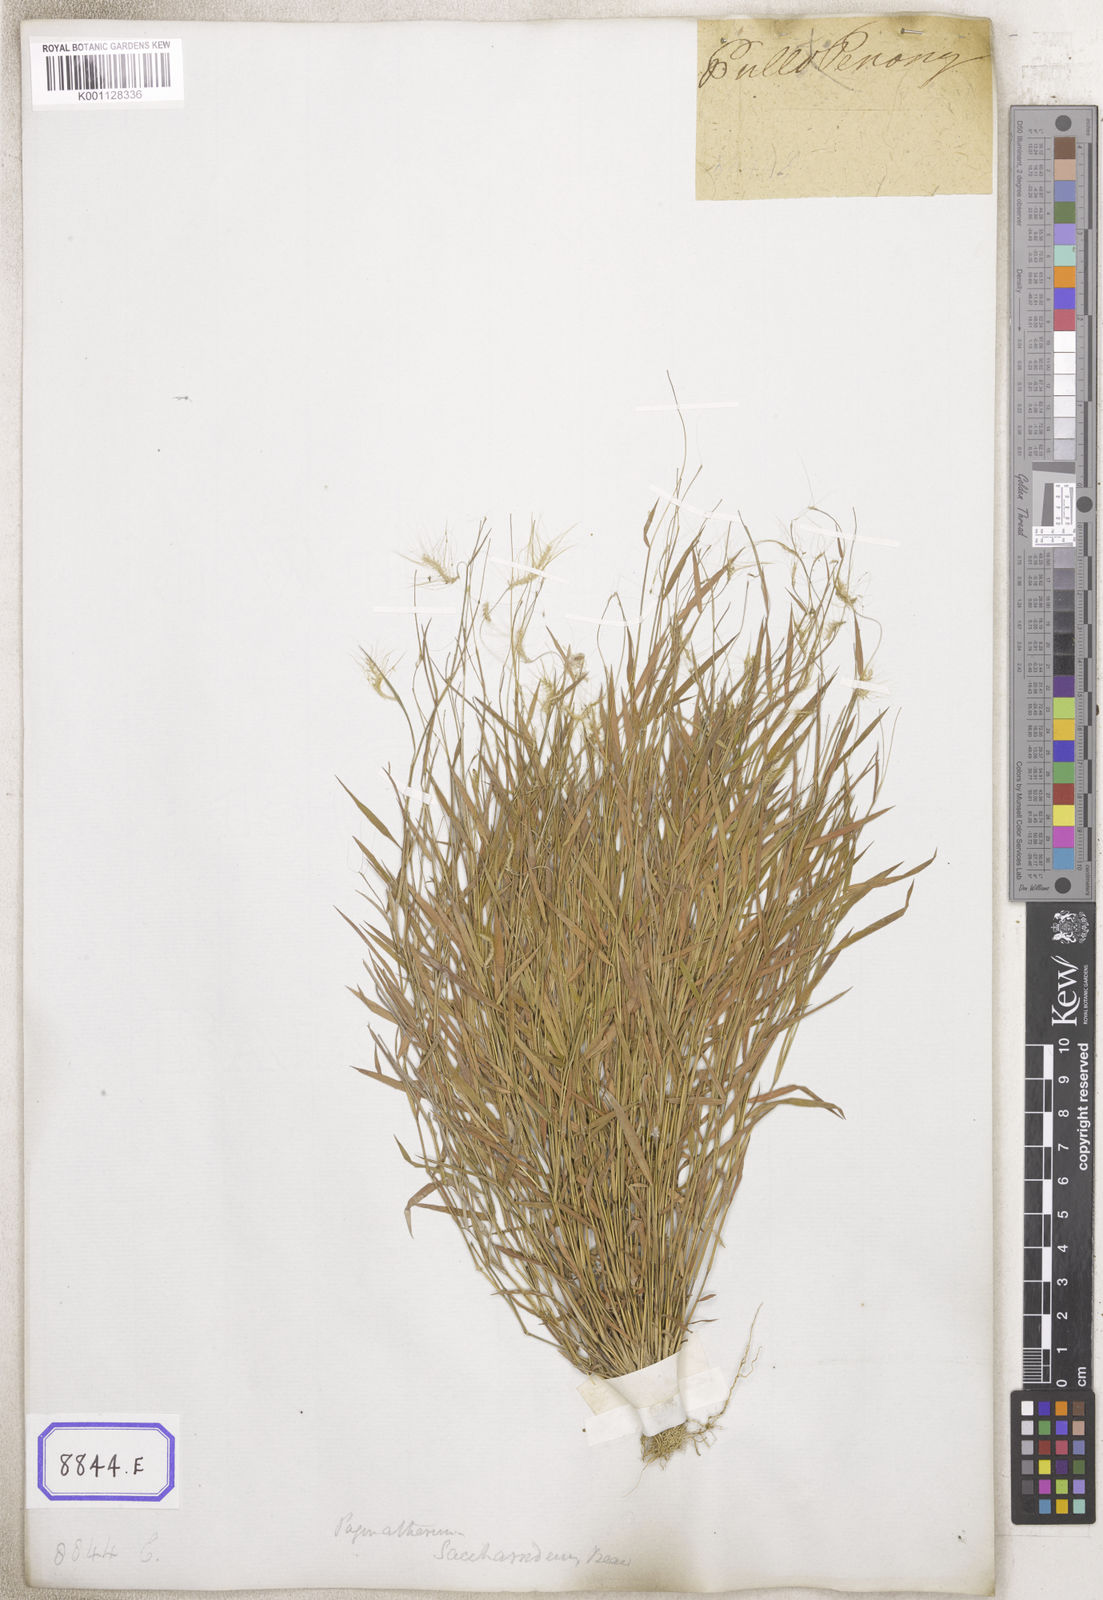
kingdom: Plantae
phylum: Tracheophyta
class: Liliopsida
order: Poales
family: Poaceae
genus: Pogonatherum
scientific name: Pogonatherum paniceum
